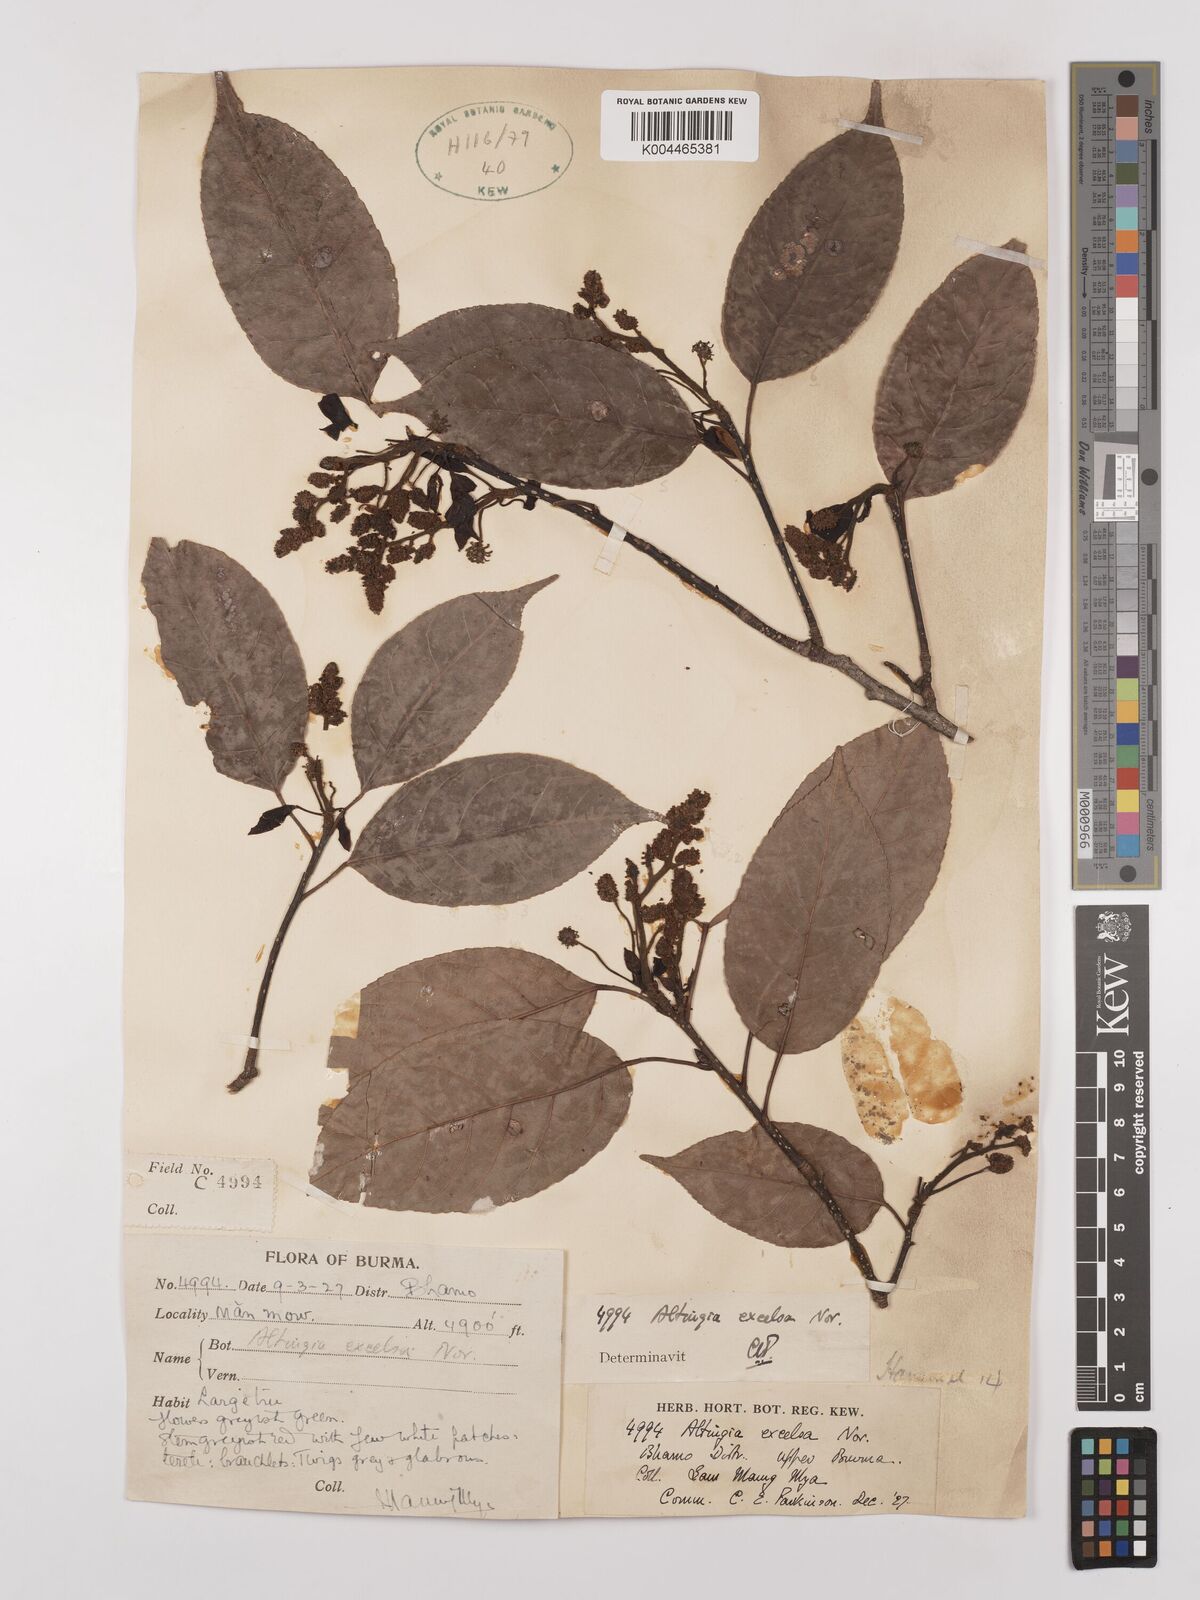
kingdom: Plantae
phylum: Tracheophyta
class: Magnoliopsida
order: Saxifragales
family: Altingiaceae
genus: Liquidambar
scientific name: Liquidambar excelsa
